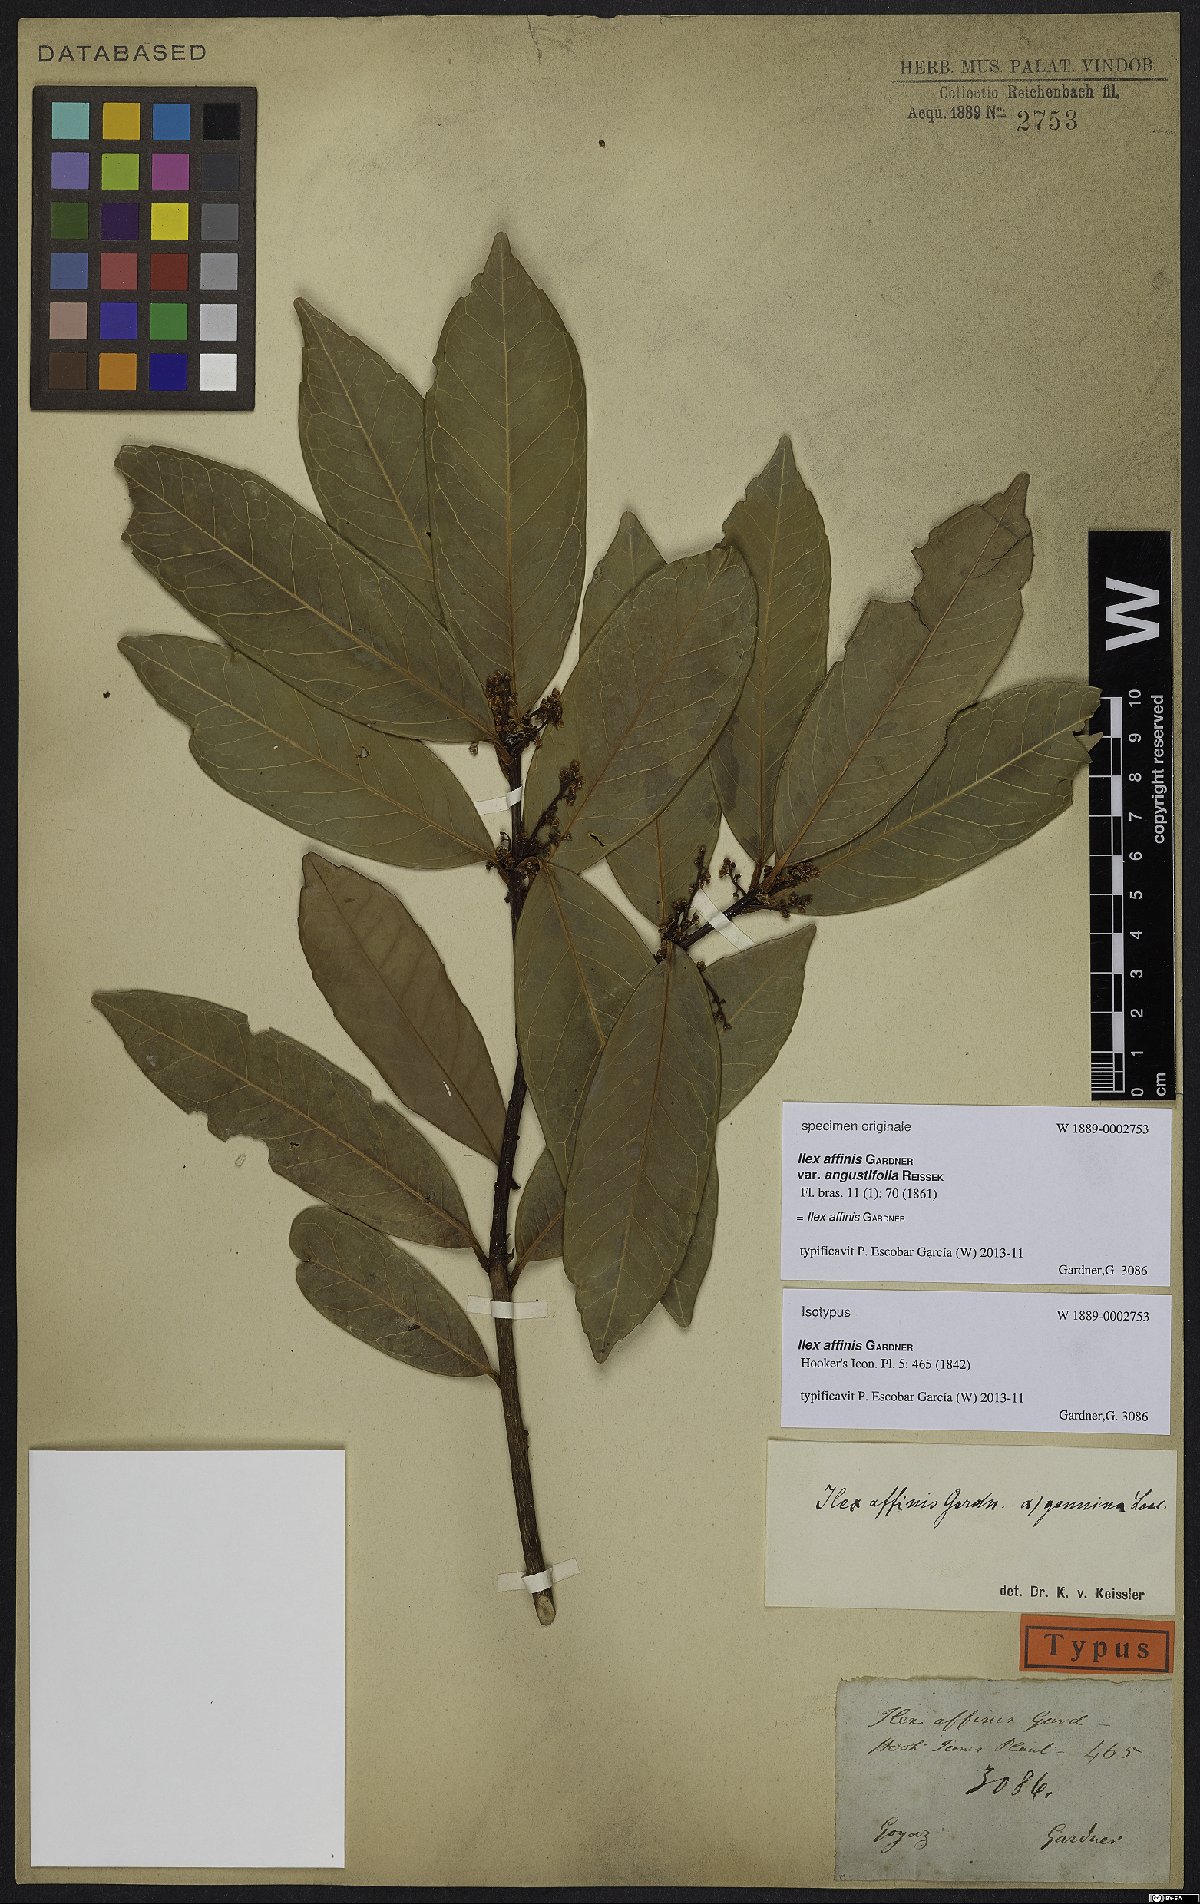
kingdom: Plantae
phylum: Tracheophyta
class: Magnoliopsida
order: Aquifoliales
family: Aquifoliaceae
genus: Ilex
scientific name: Ilex affinis
